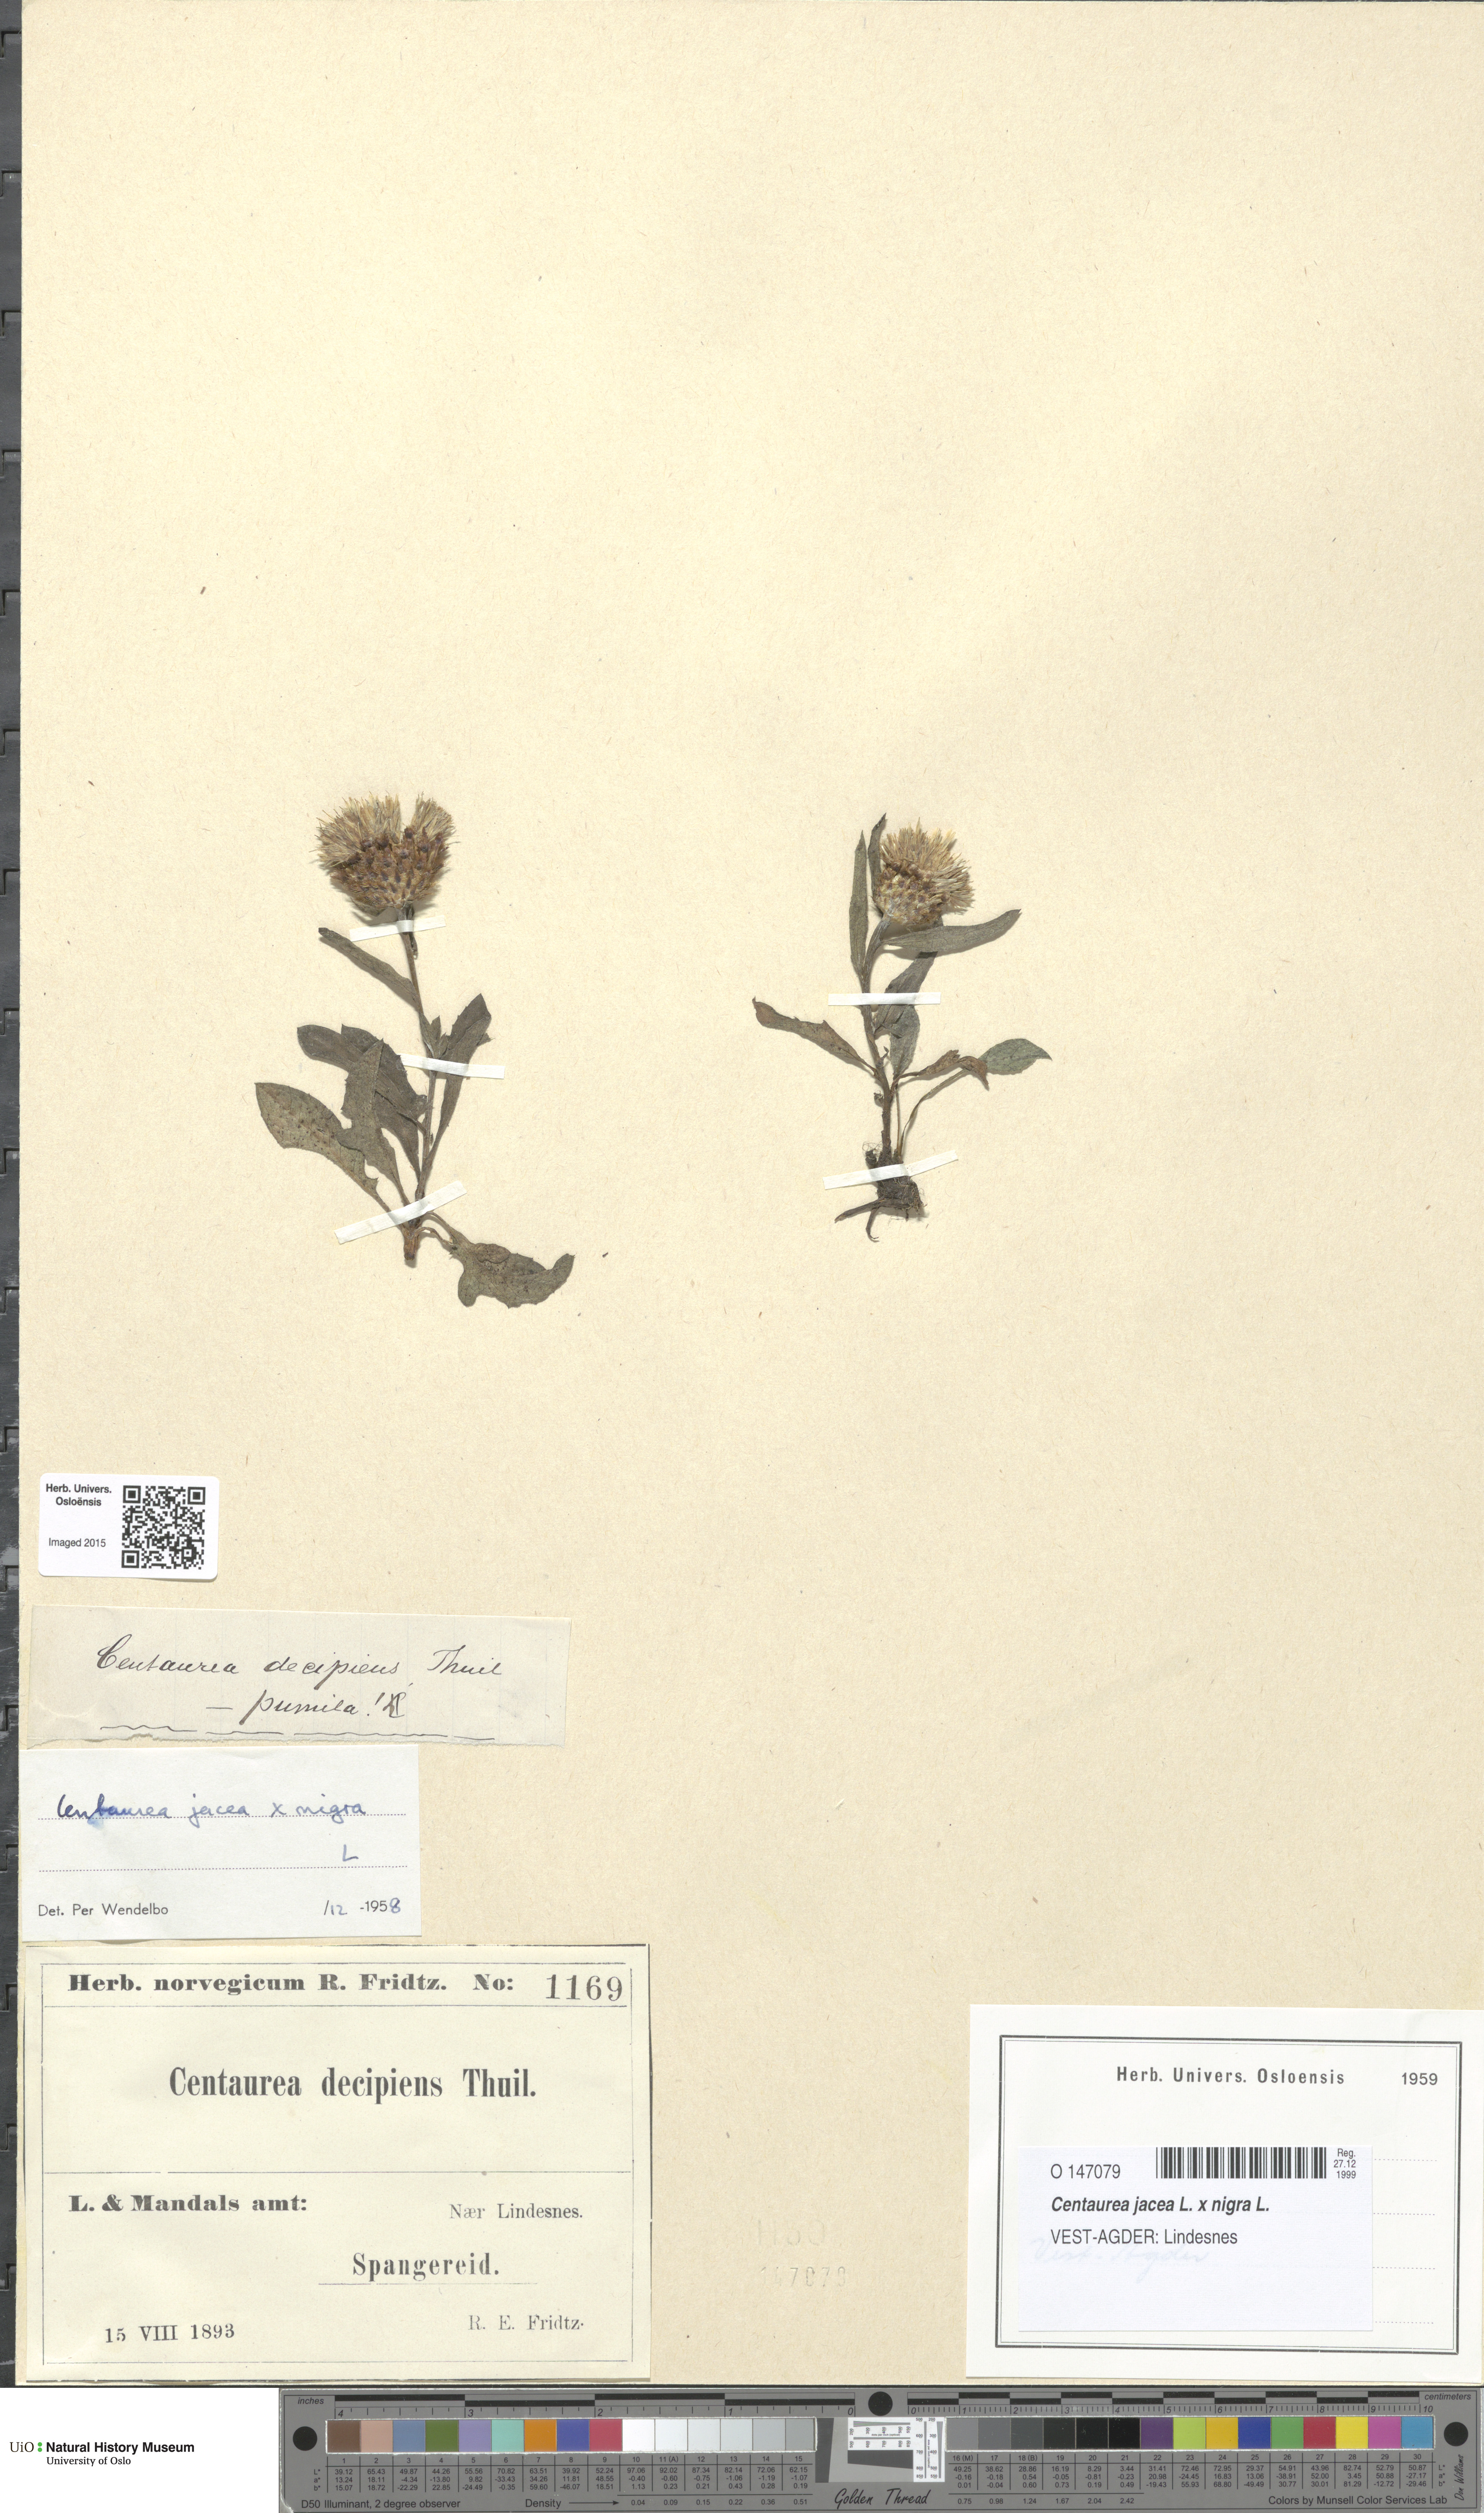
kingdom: Plantae
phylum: Tracheophyta
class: Magnoliopsida
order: Asterales
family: Asteraceae
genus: Centaurea
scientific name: Centaurea
